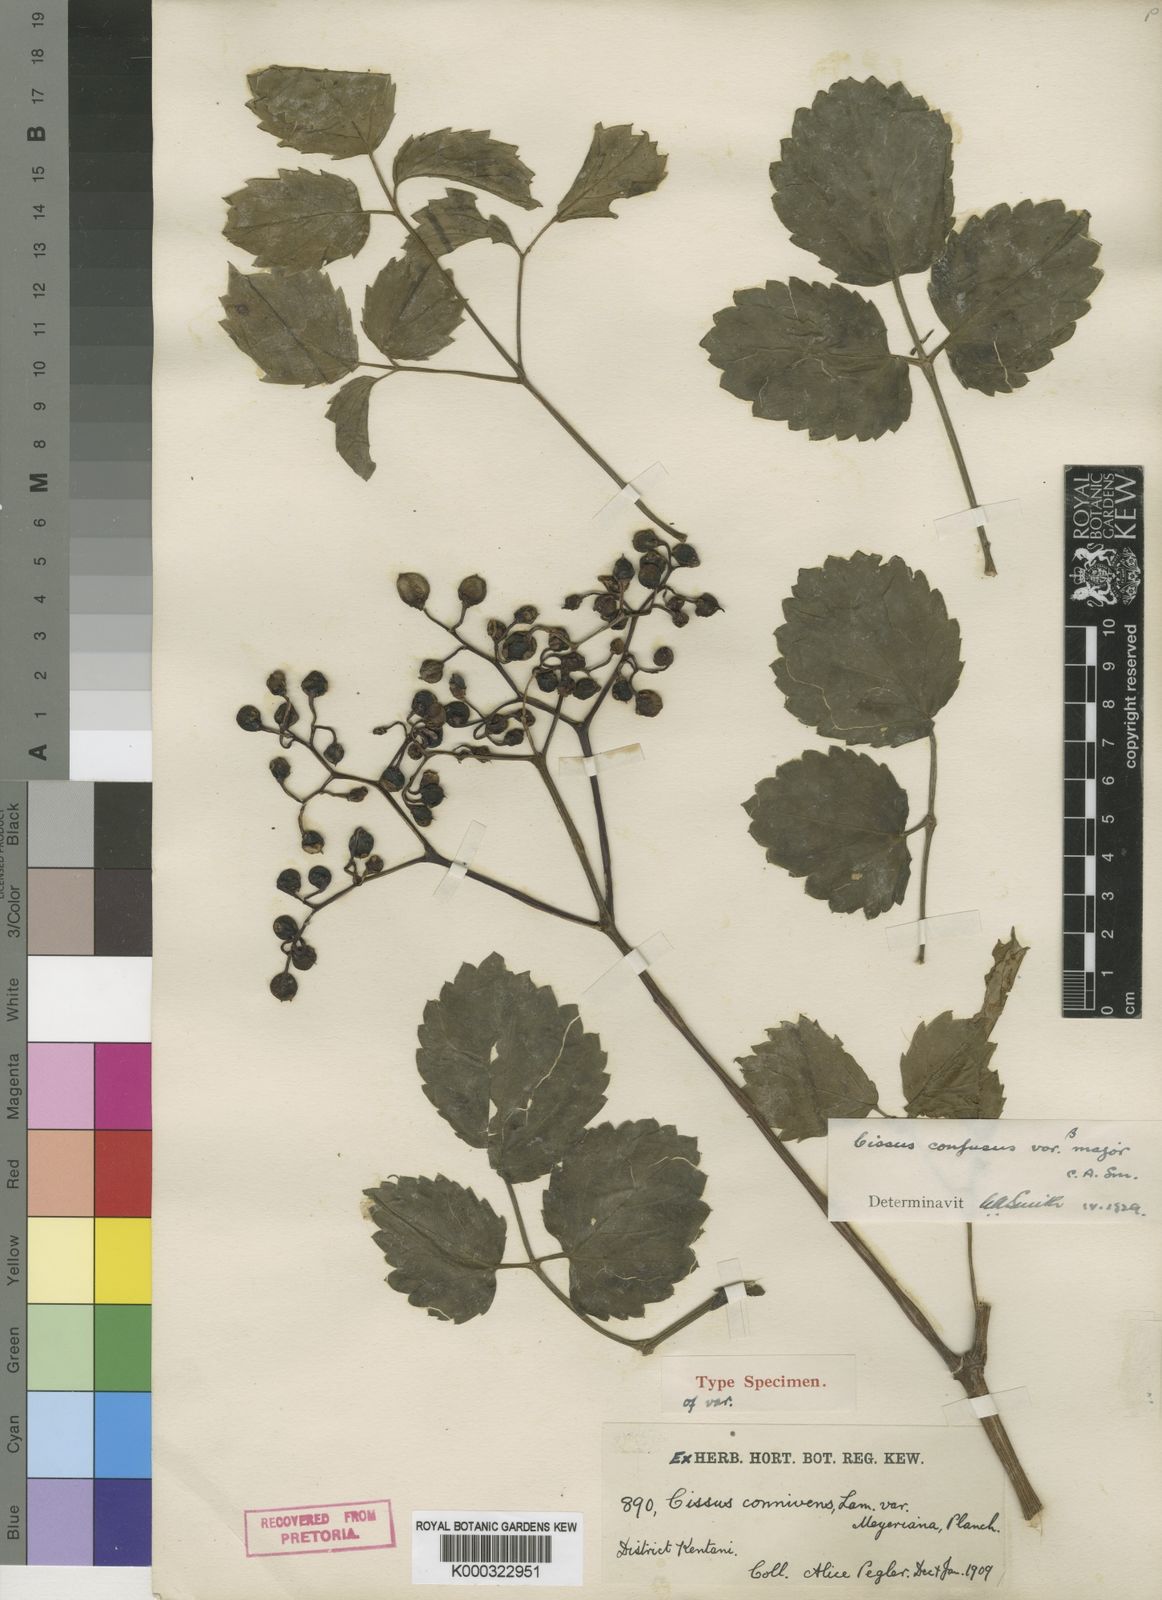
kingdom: Plantae
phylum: Tracheophyta
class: Magnoliopsida
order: Vitales
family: Vitaceae
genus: Cyphostemma
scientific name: Cyphostemma natalitium
